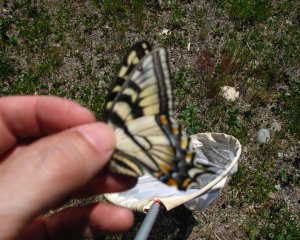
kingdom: Animalia
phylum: Arthropoda
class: Insecta
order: Lepidoptera
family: Papilionidae
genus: Pterourus
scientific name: Pterourus canadensis
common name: Canadian Tiger Swallowtail
